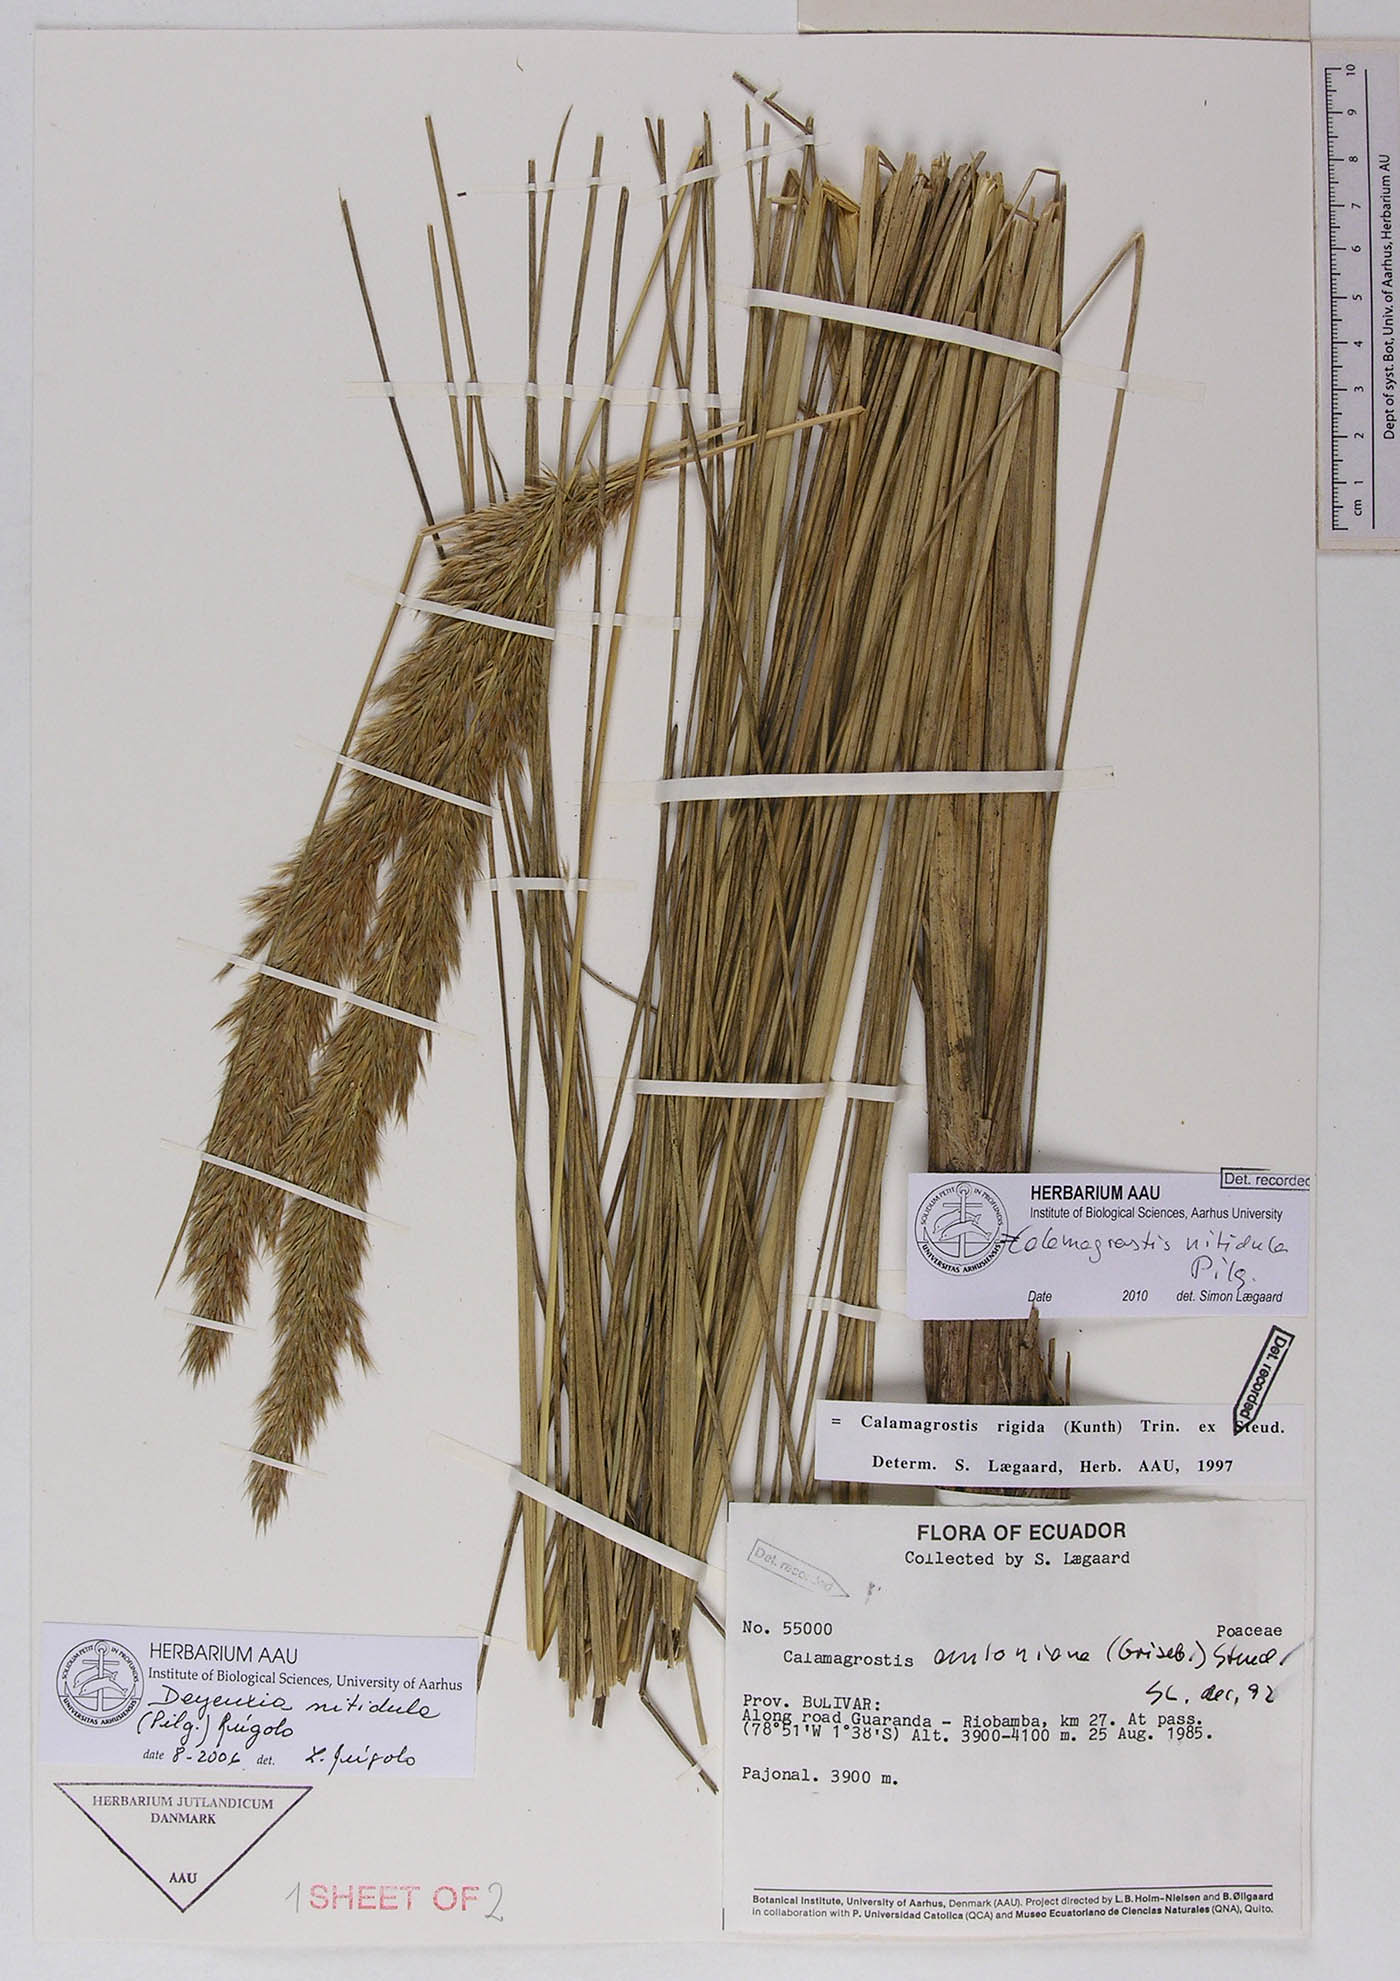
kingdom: Plantae
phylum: Tracheophyta
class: Liliopsida
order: Poales
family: Poaceae
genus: Cinnagrostis
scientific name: Cinnagrostis nitidula
